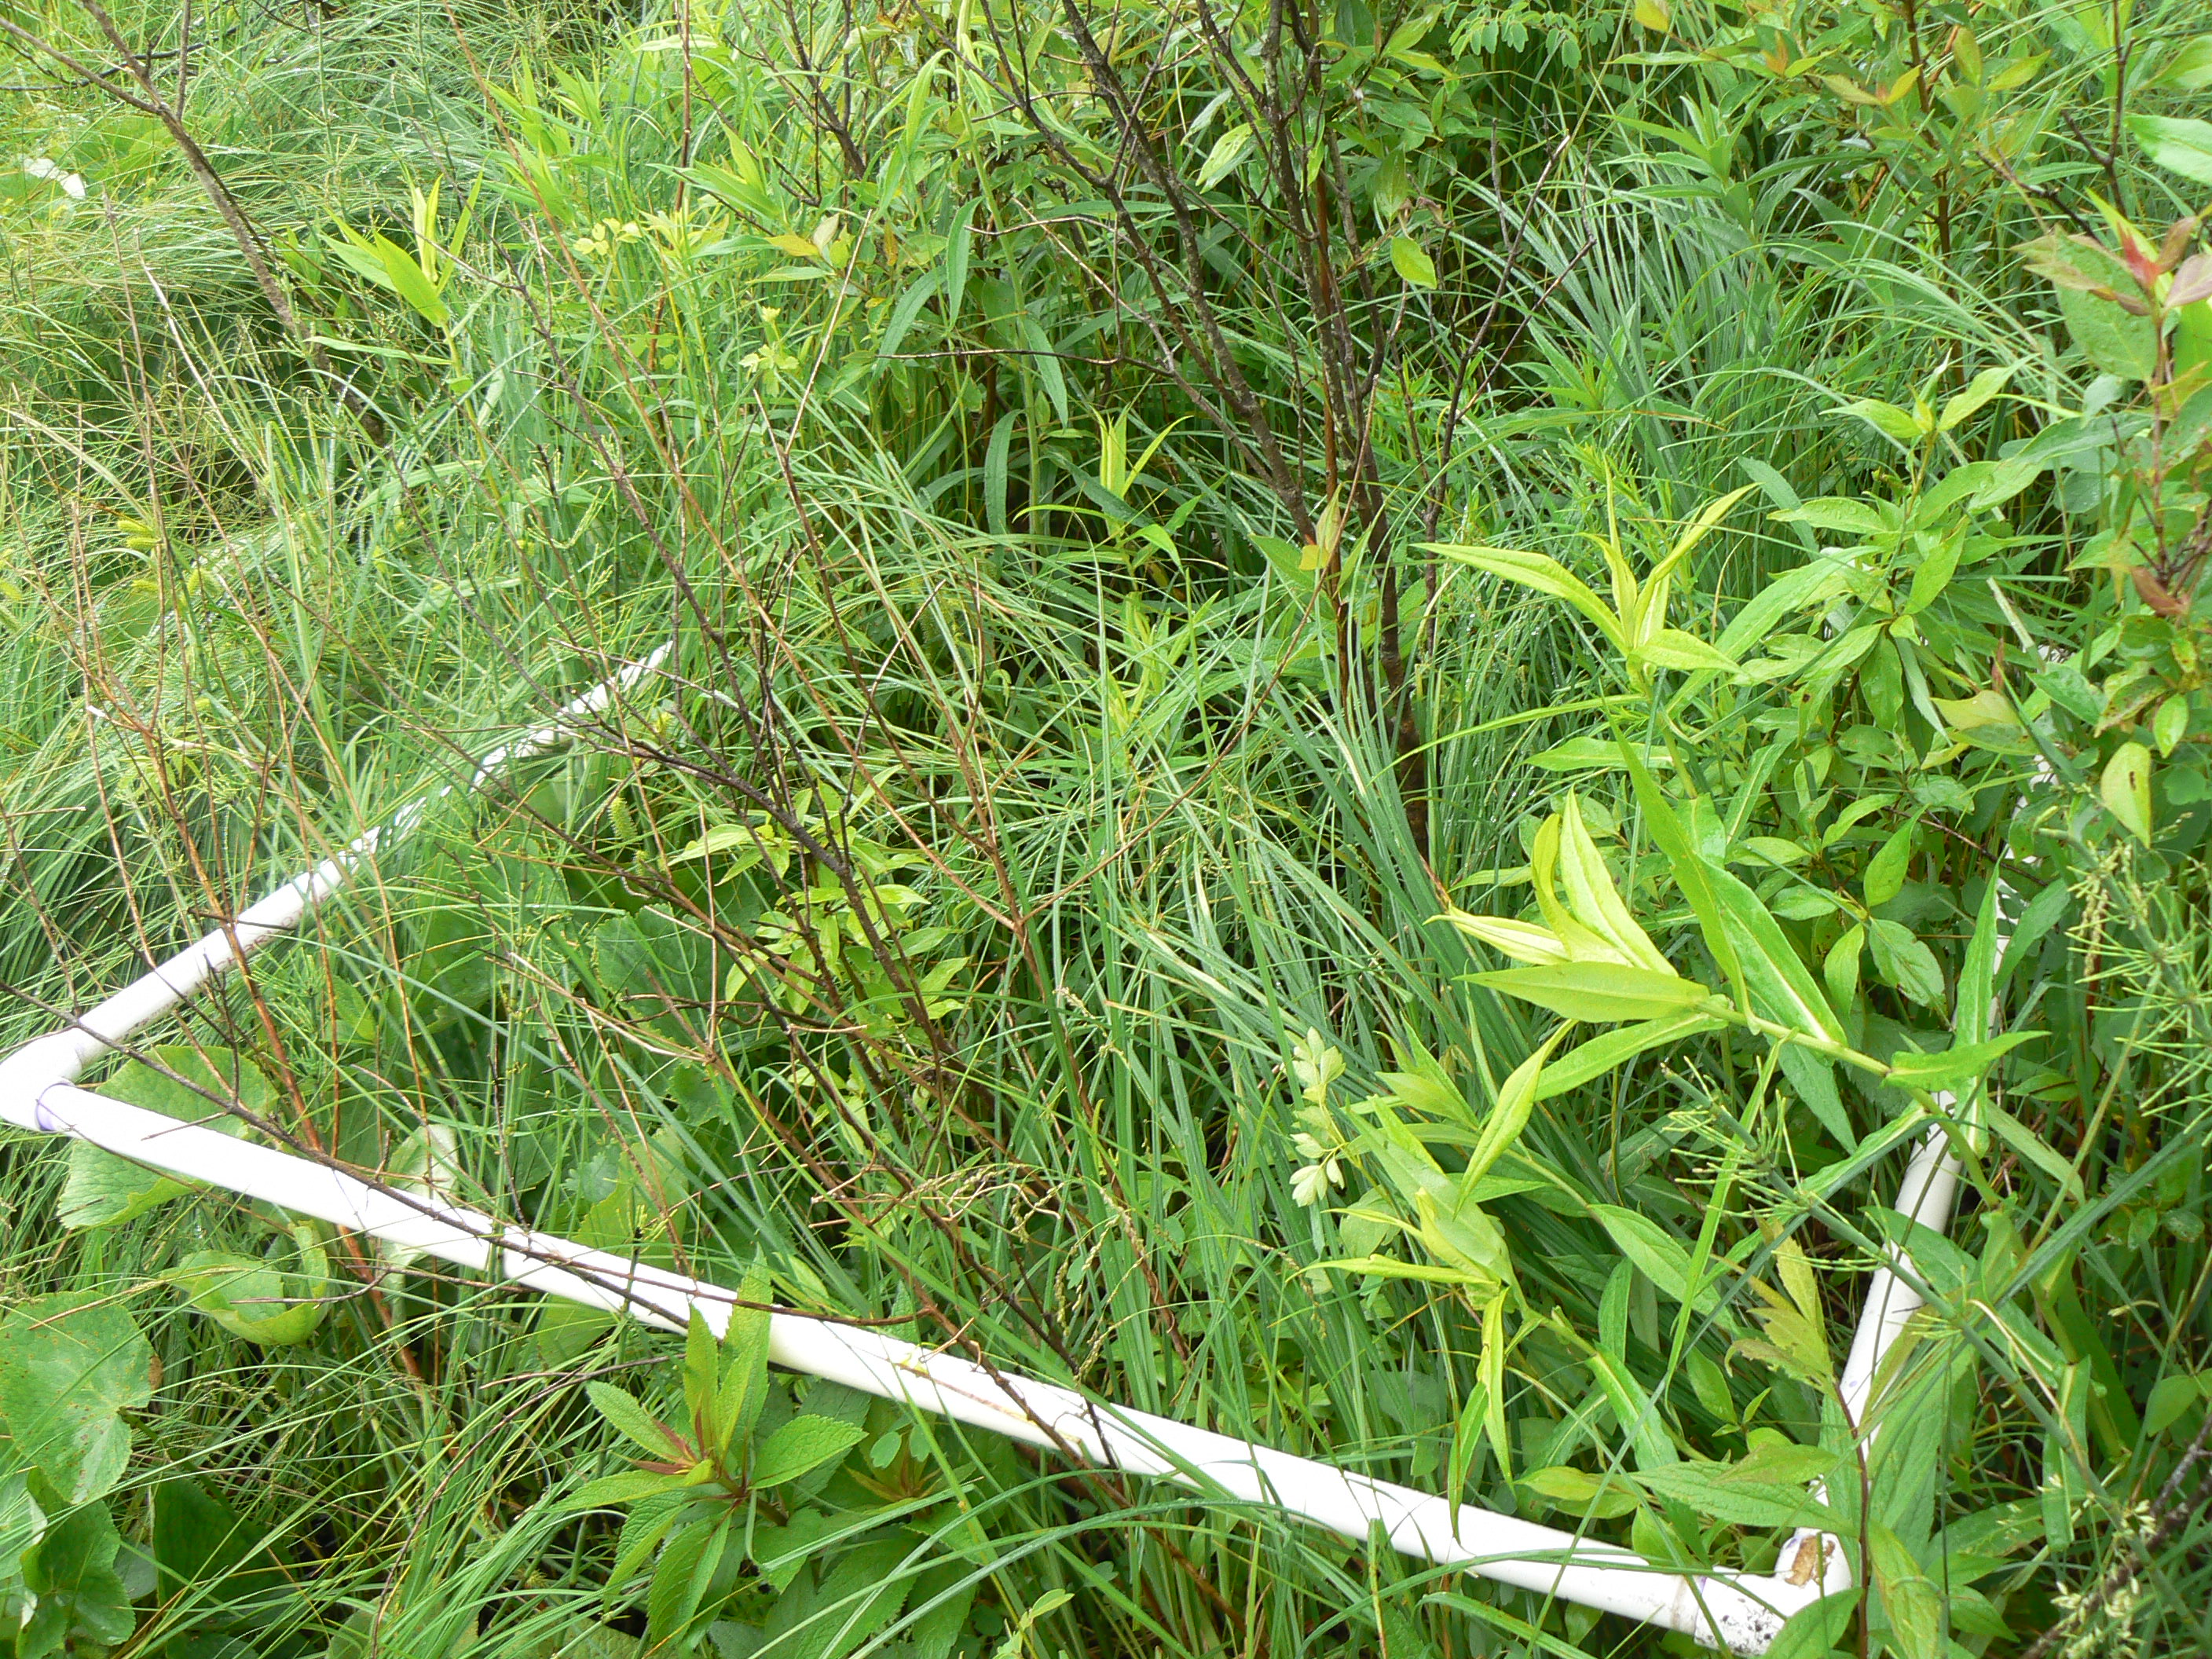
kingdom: Plantae
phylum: Tracheophyta
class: Magnoliopsida
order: Asterales
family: Asteraceae
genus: Solidago
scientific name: Solidago rugosa
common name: Rough-stemmed goldenrod
